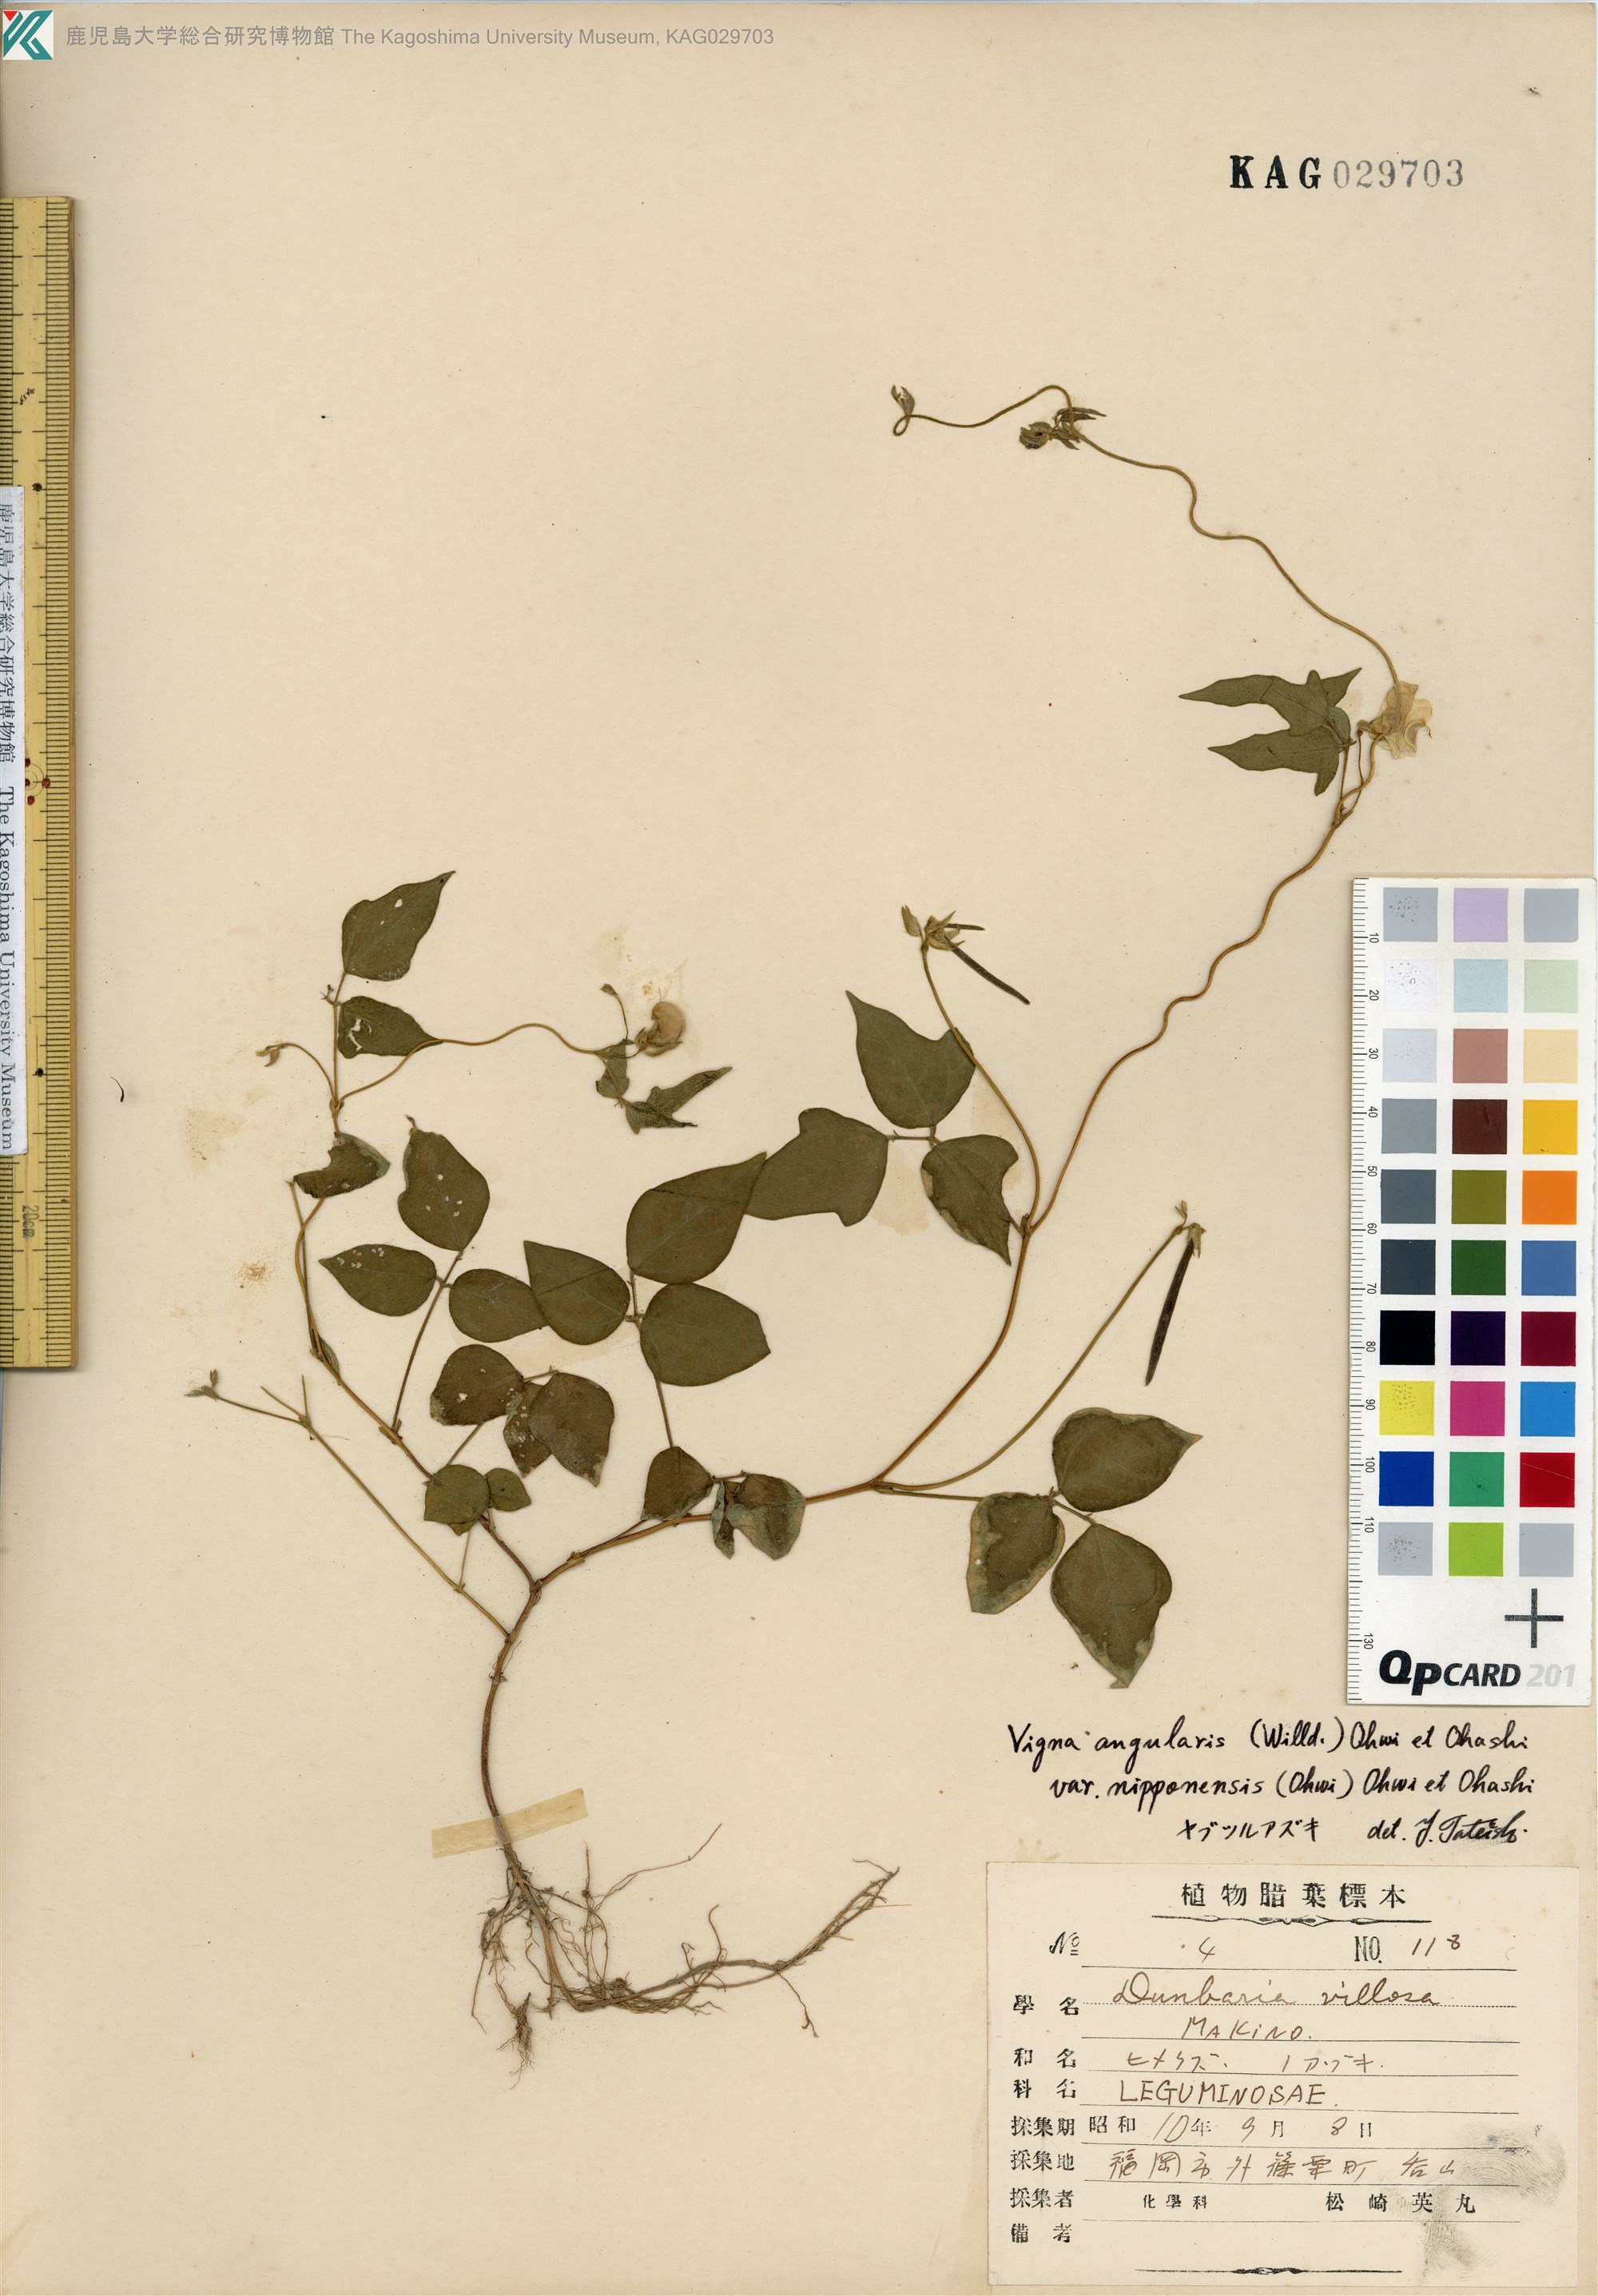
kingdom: Plantae
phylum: Tracheophyta
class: Magnoliopsida
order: Fabales
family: Fabaceae
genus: Vigna
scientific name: Vigna angularis
